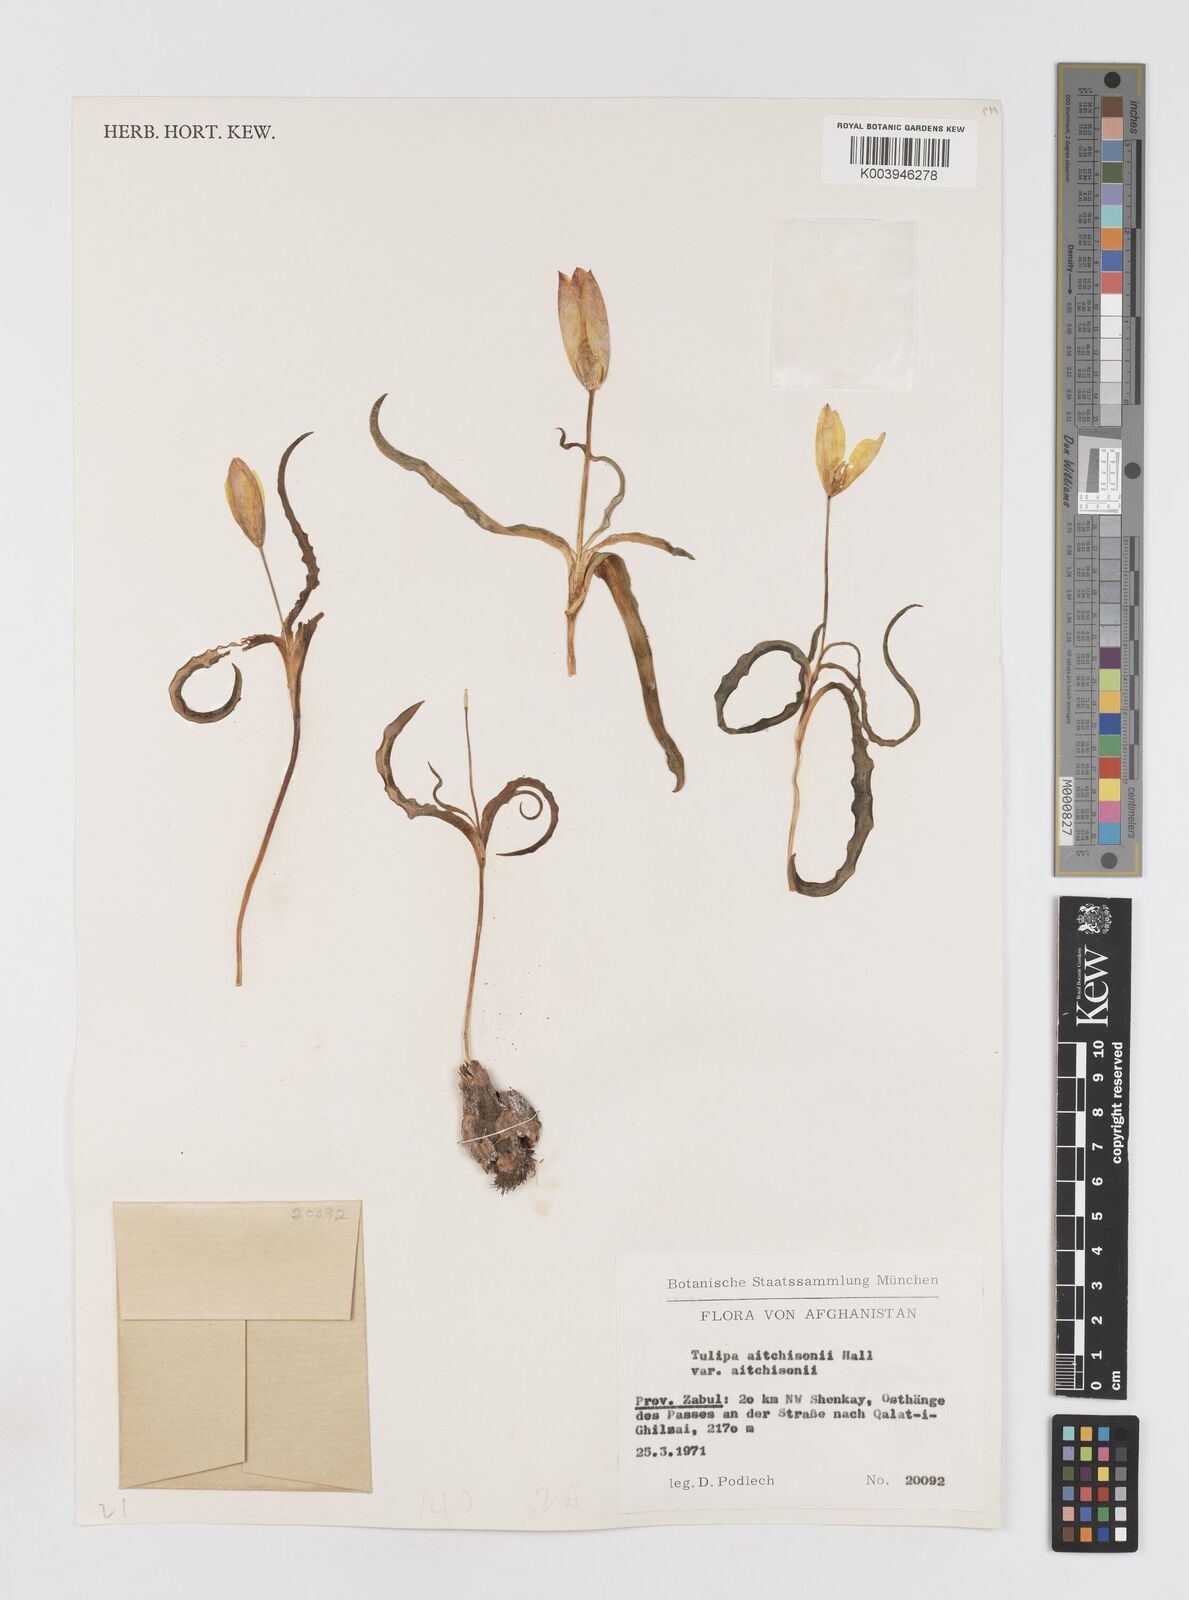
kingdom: Plantae
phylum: Tracheophyta
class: Liliopsida
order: Liliales
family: Liliaceae
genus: Tulipa
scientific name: Tulipa clusiana
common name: Lady tulip
